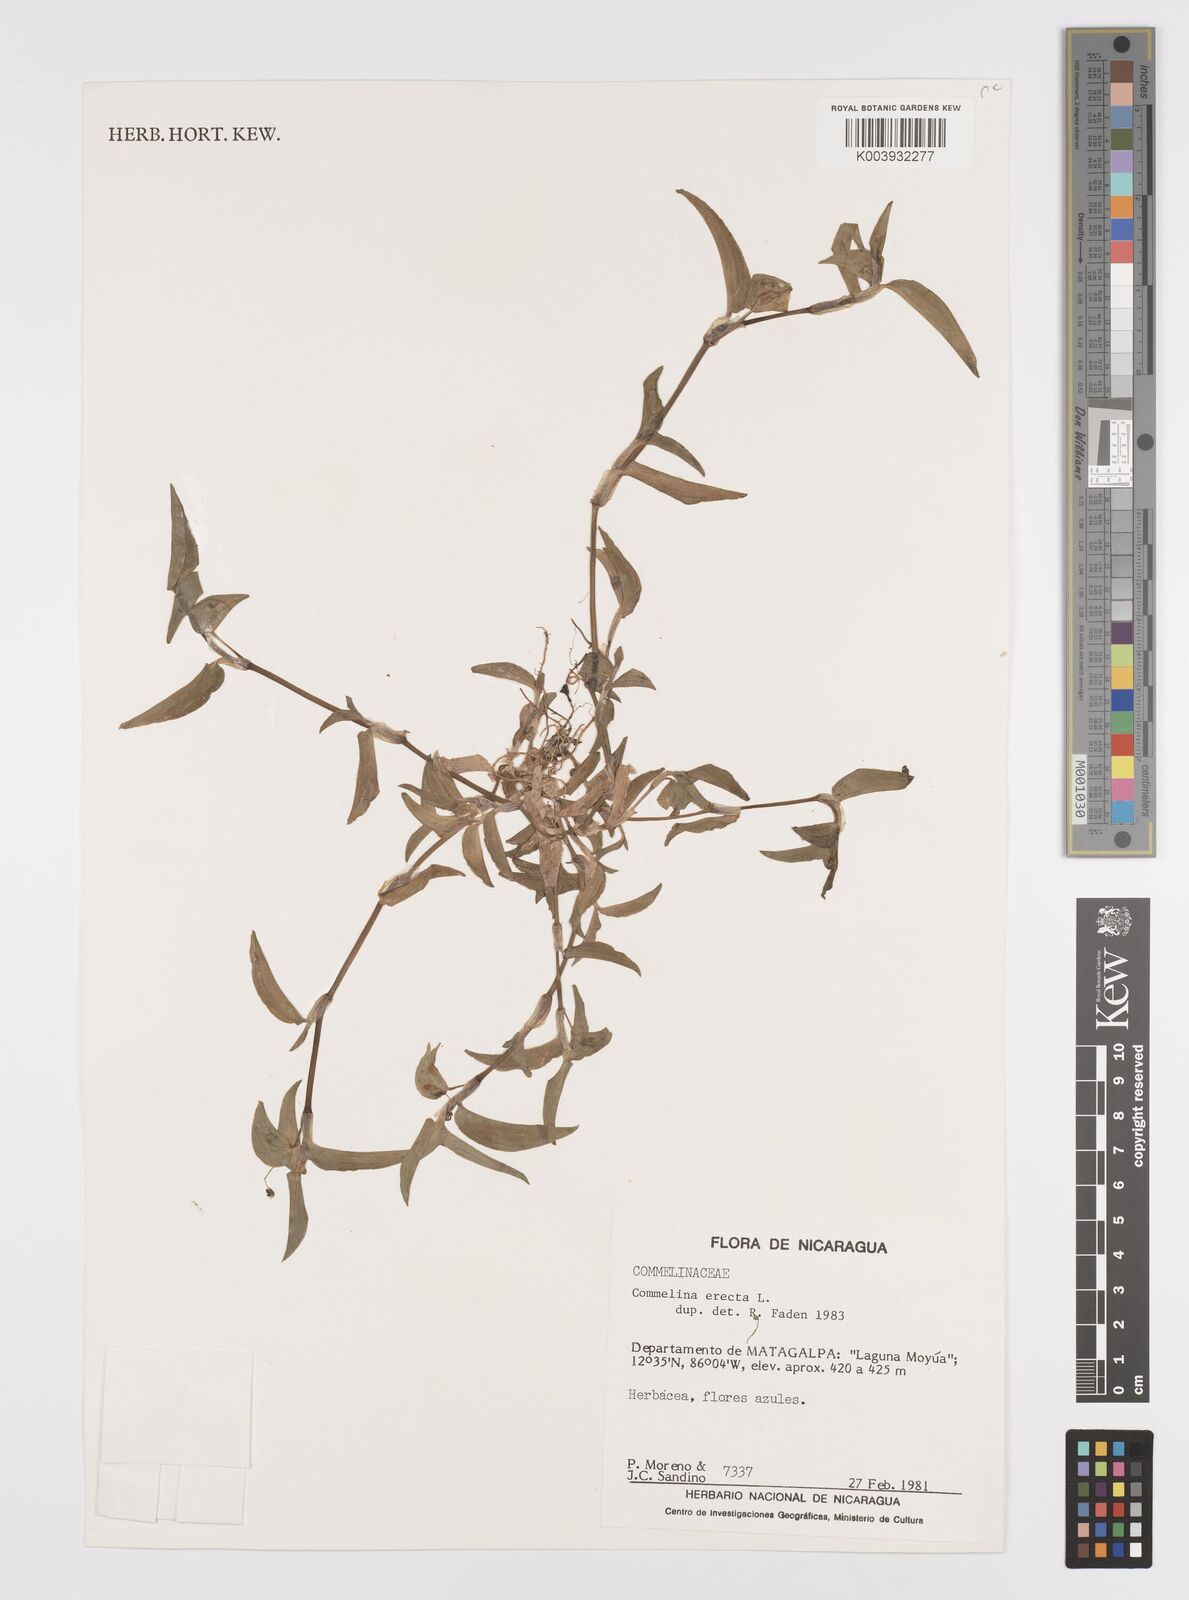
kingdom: Plantae
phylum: Tracheophyta
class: Liliopsida
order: Commelinales
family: Commelinaceae
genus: Commelina
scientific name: Commelina erecta
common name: Blousel blommetjie
